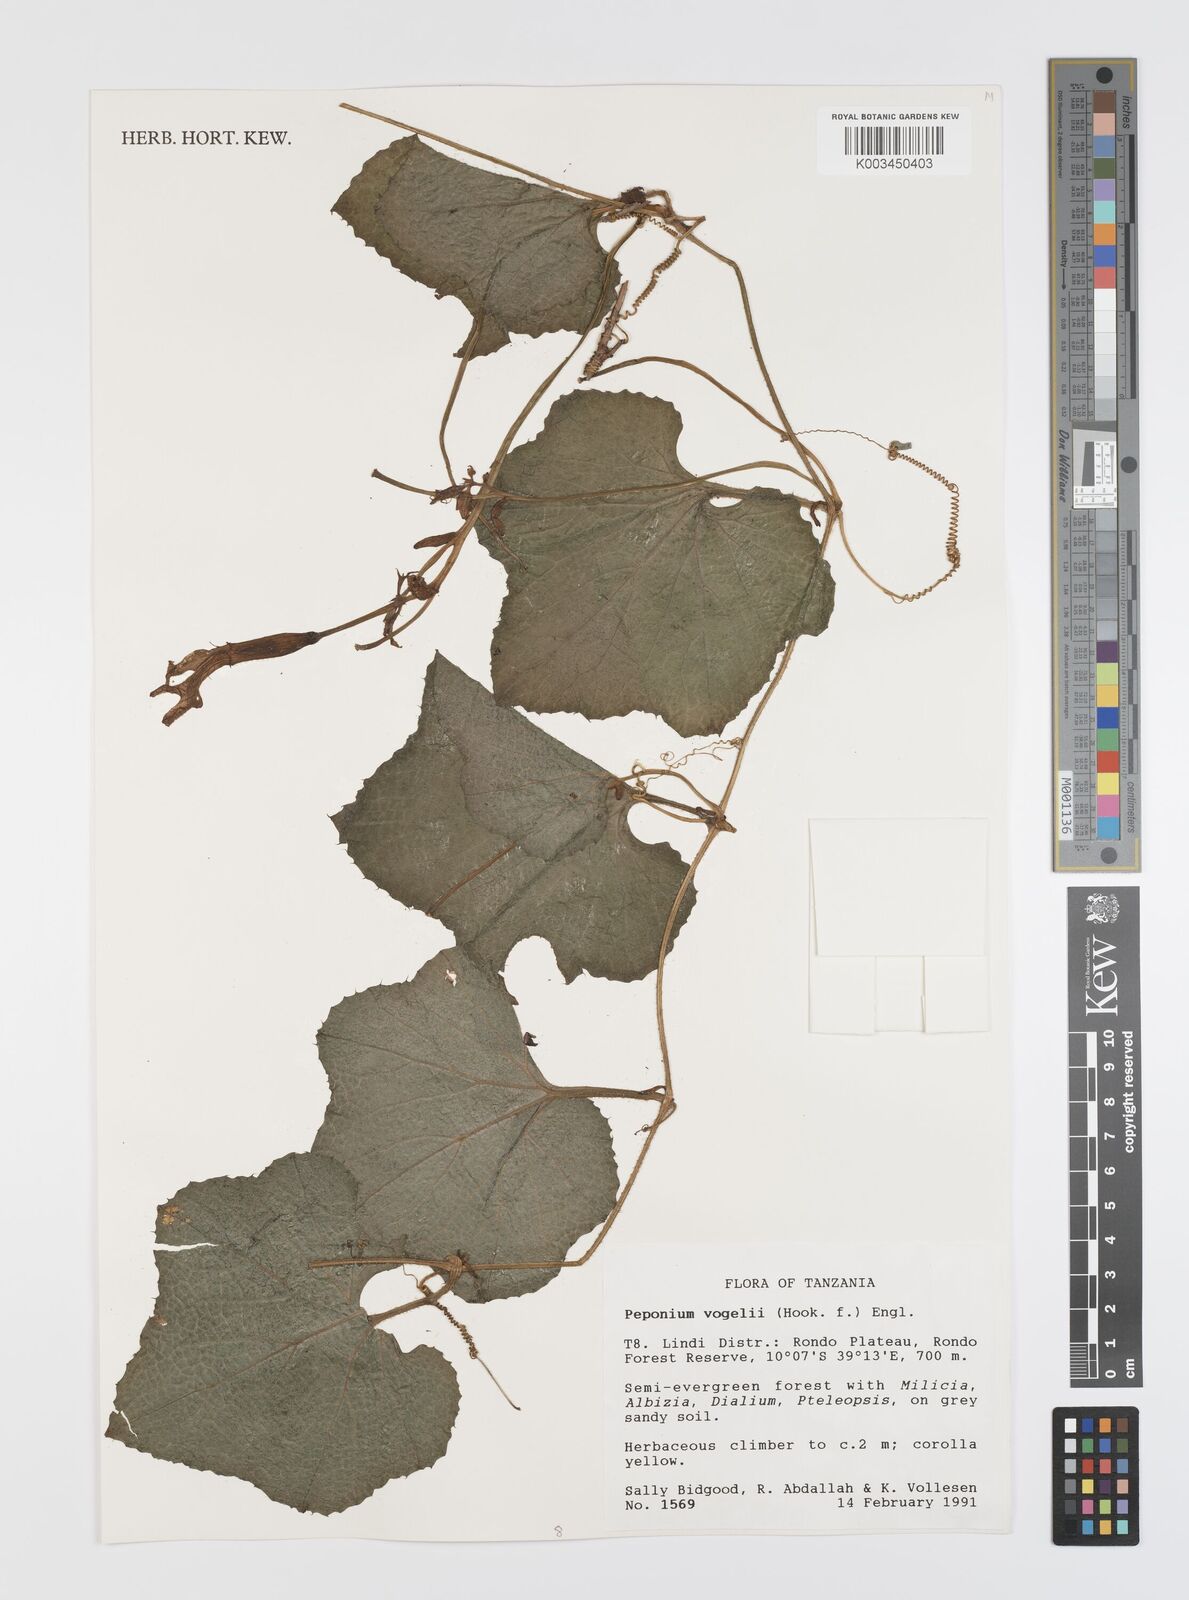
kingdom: Plantae
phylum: Tracheophyta
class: Magnoliopsida
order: Cucurbitales
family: Cucurbitaceae
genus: Peponium
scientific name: Peponium vogelii
